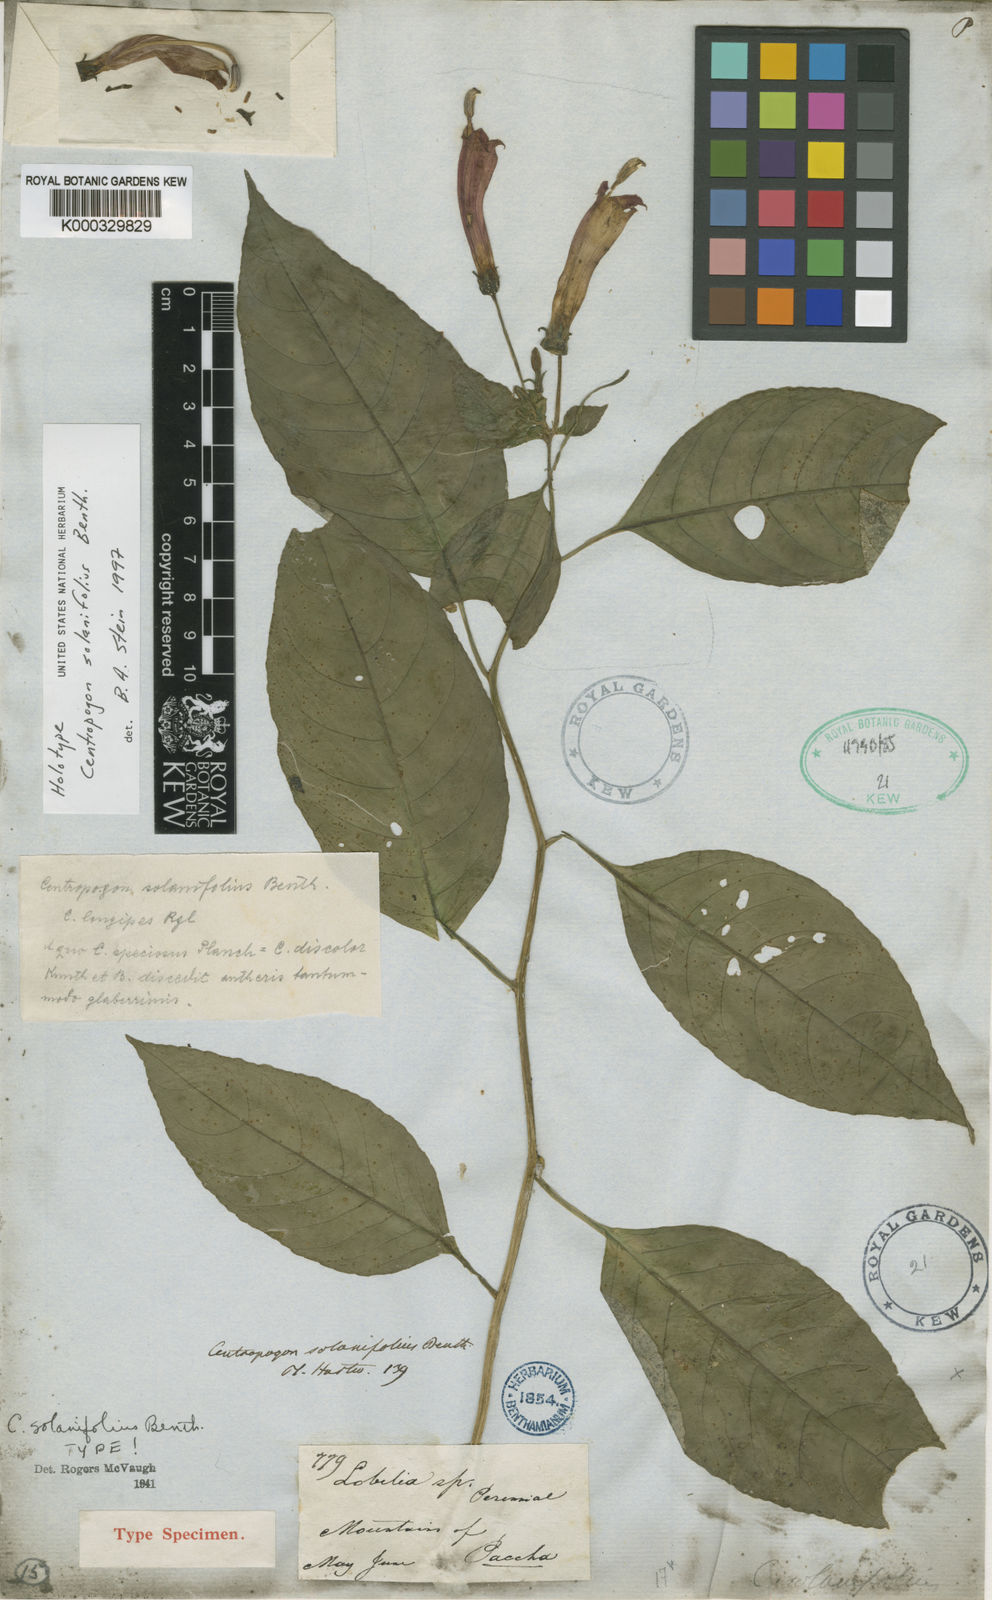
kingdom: Plantae
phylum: Tracheophyta
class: Magnoliopsida
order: Asterales
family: Campanulaceae
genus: Centropogon
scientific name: Centropogon solanifolius
